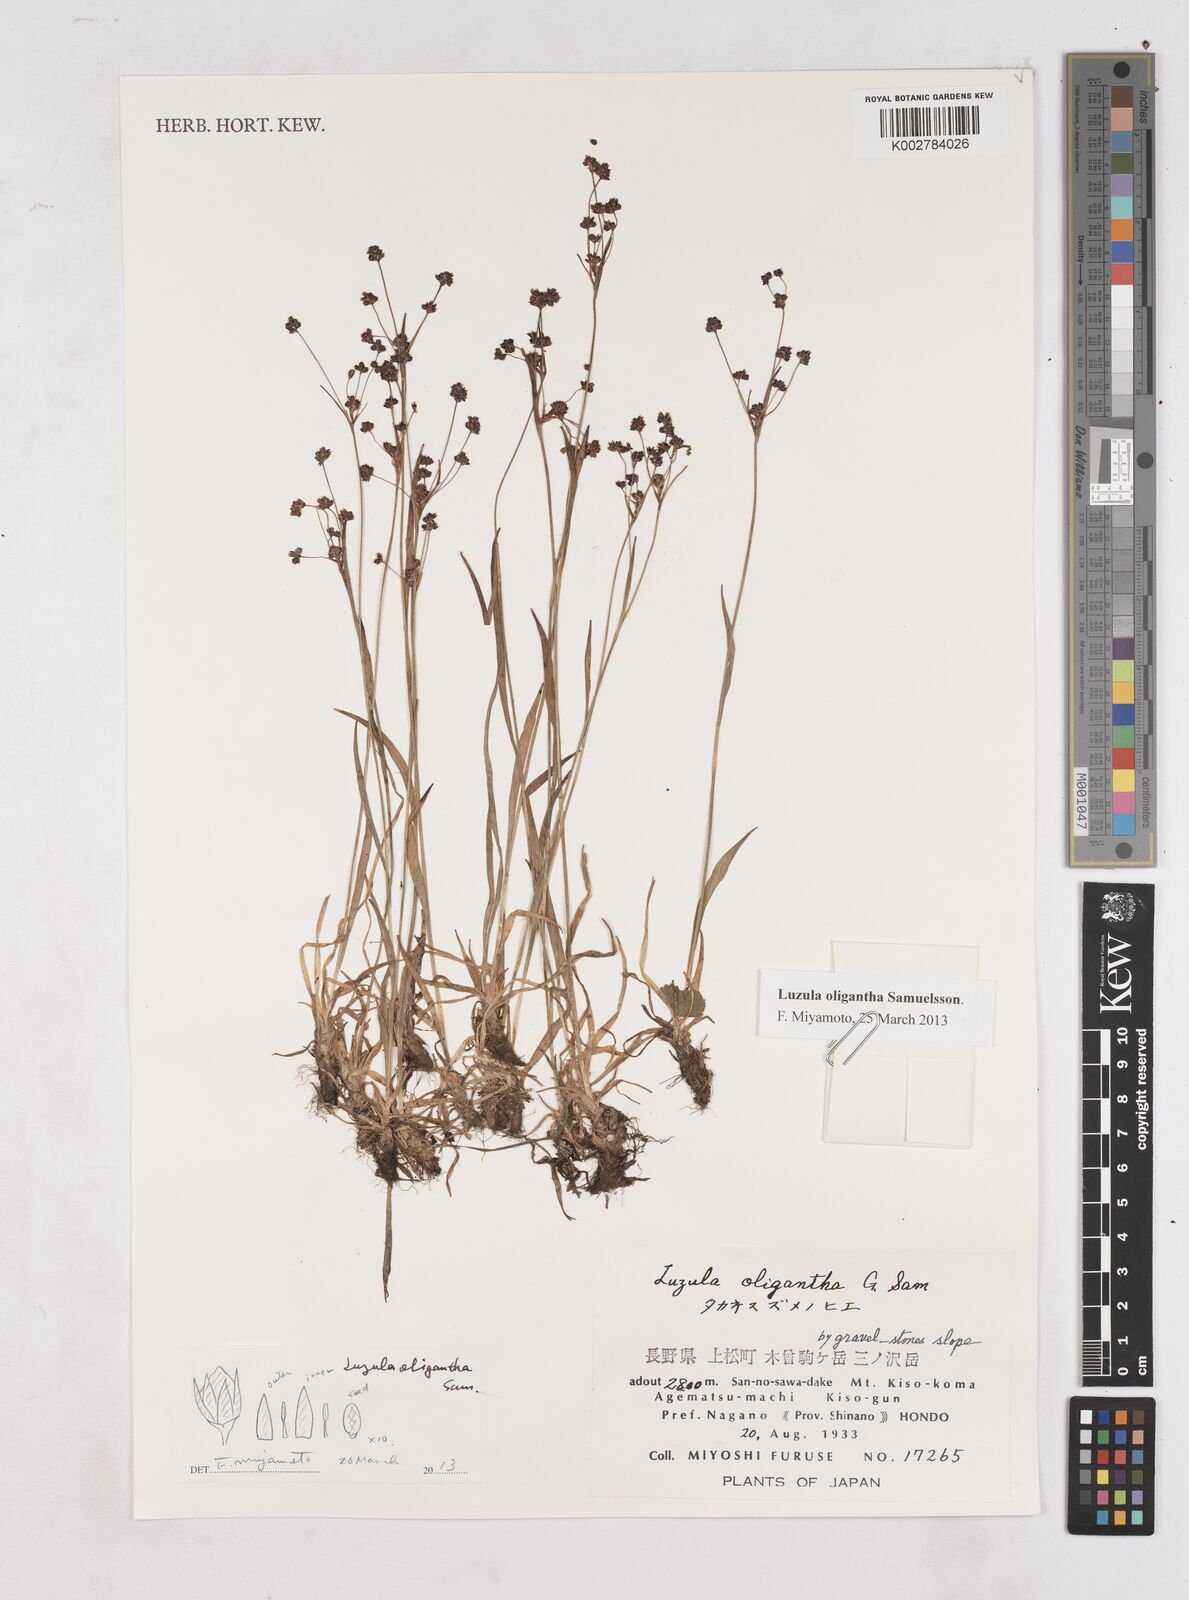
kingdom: Plantae
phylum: Tracheophyta
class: Liliopsida
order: Poales
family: Juncaceae
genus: Luzula
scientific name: Luzula oligantha
